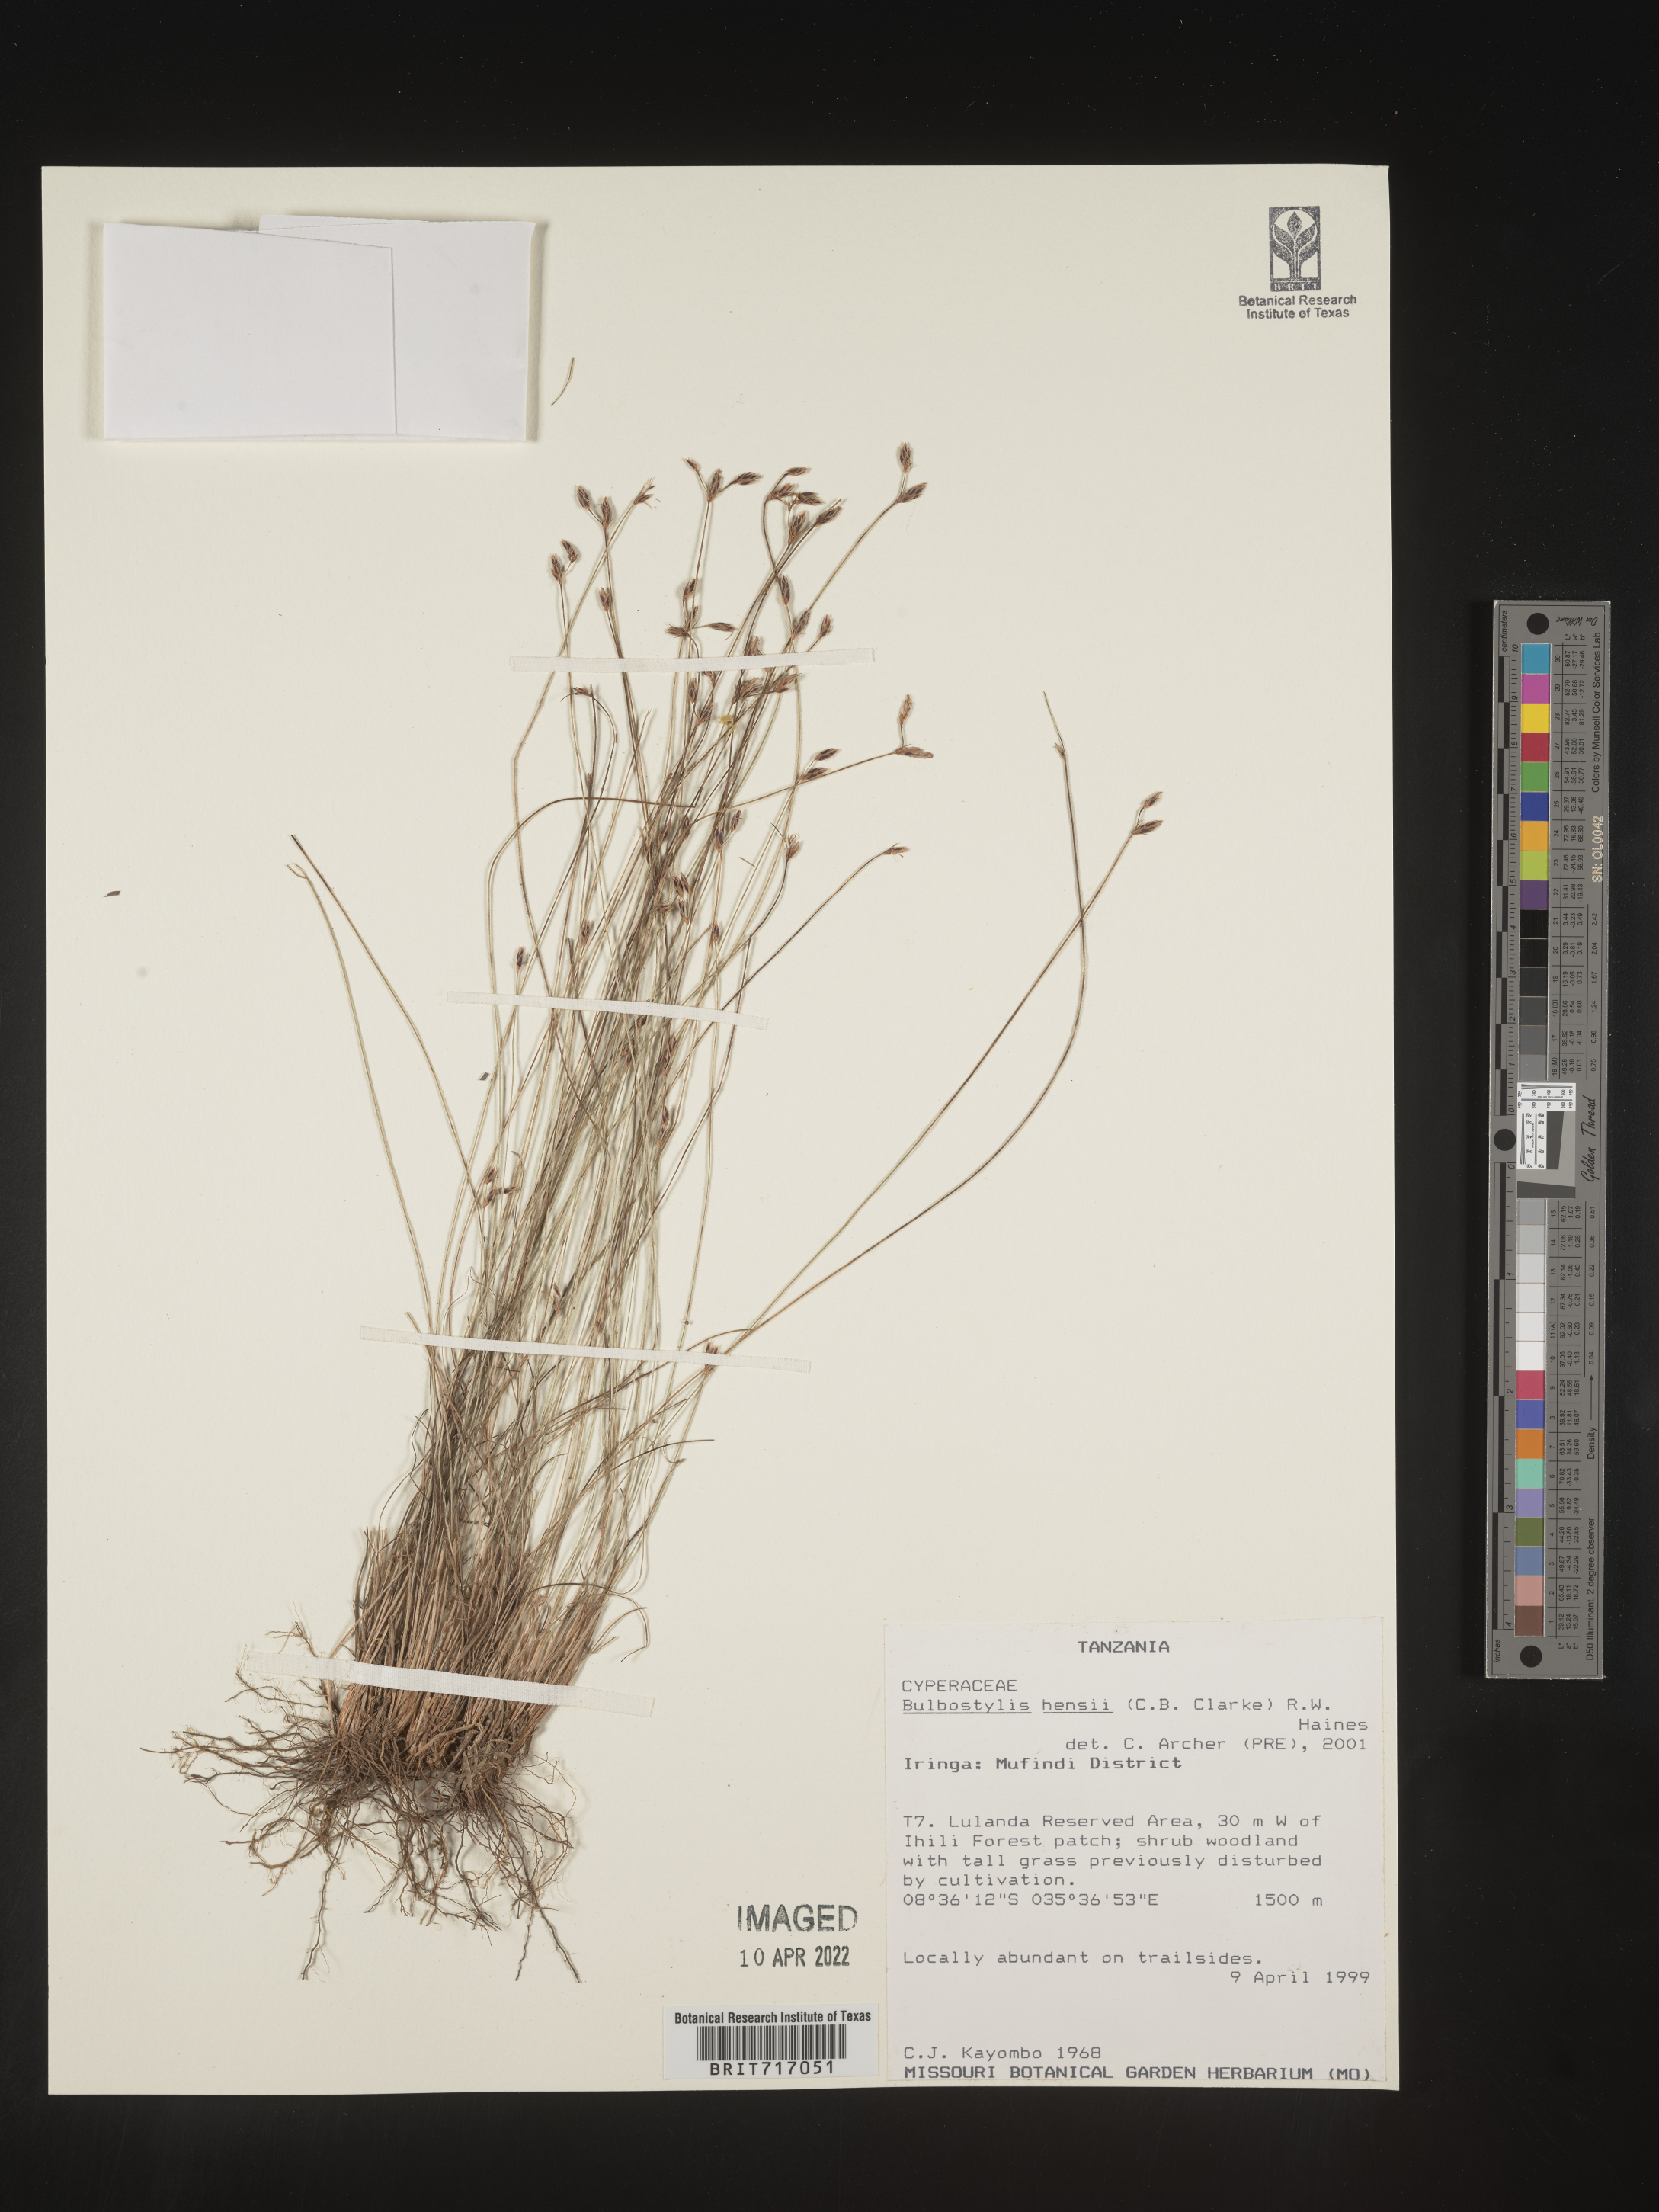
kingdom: Plantae
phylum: Tracheophyta
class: Liliopsida
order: Poales
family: Cyperaceae
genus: Bulbostylis
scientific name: Bulbostylis
